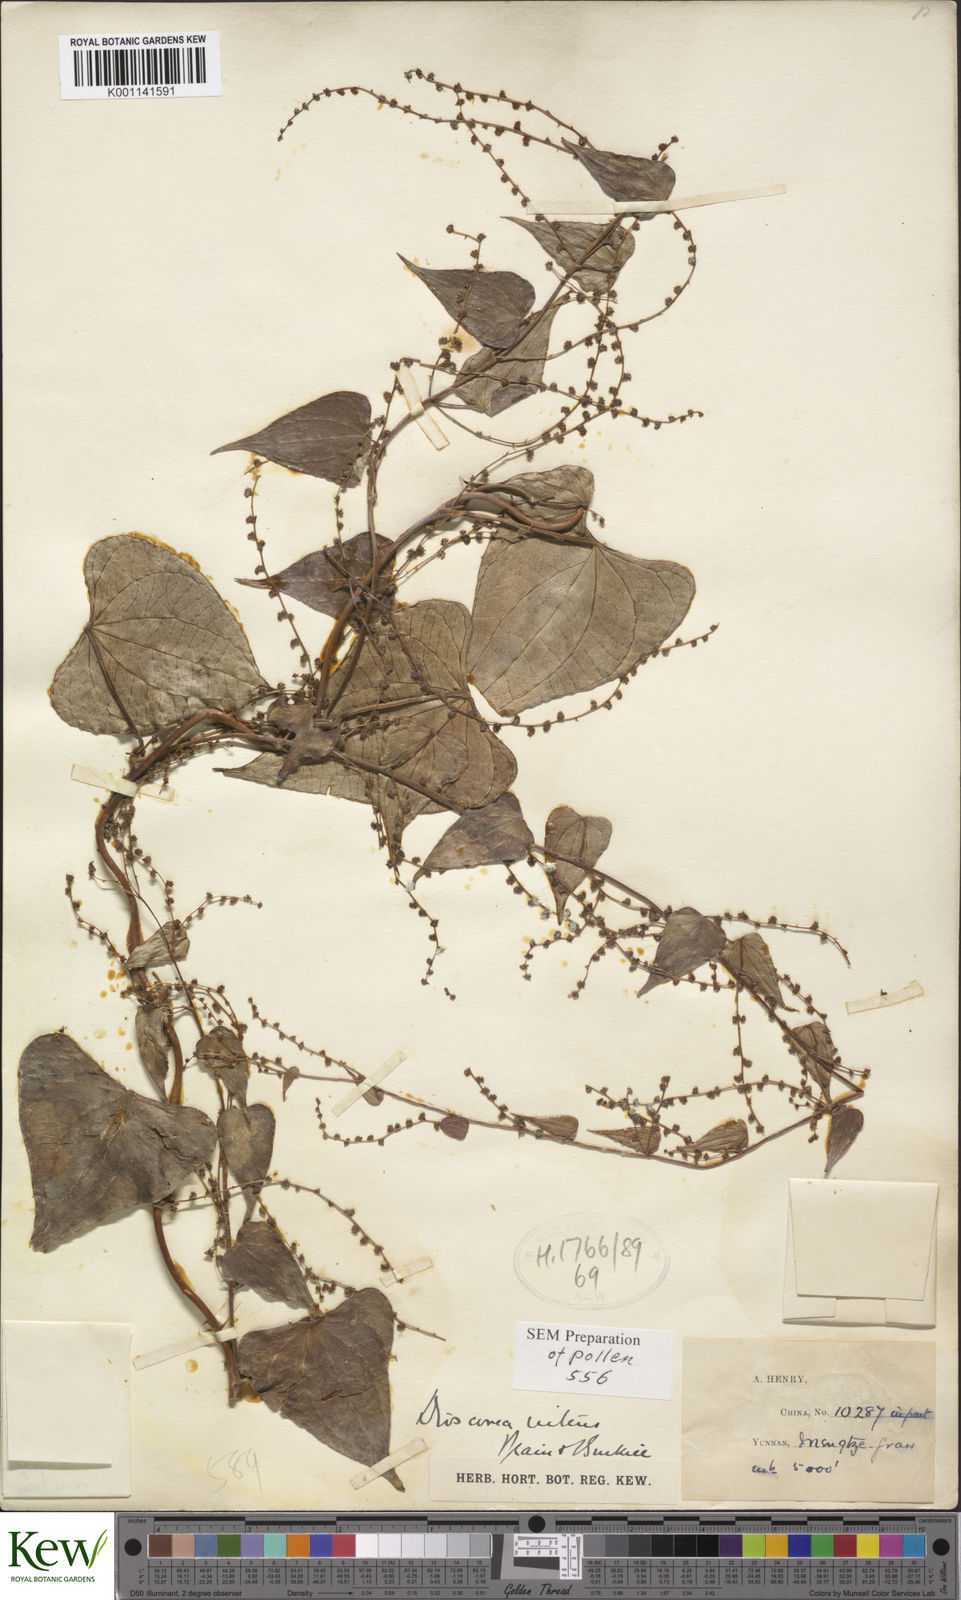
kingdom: Plantae
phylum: Tracheophyta
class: Liliopsida
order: Dioscoreales
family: Dioscoreaceae
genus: Dioscorea
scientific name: Dioscorea nitens
